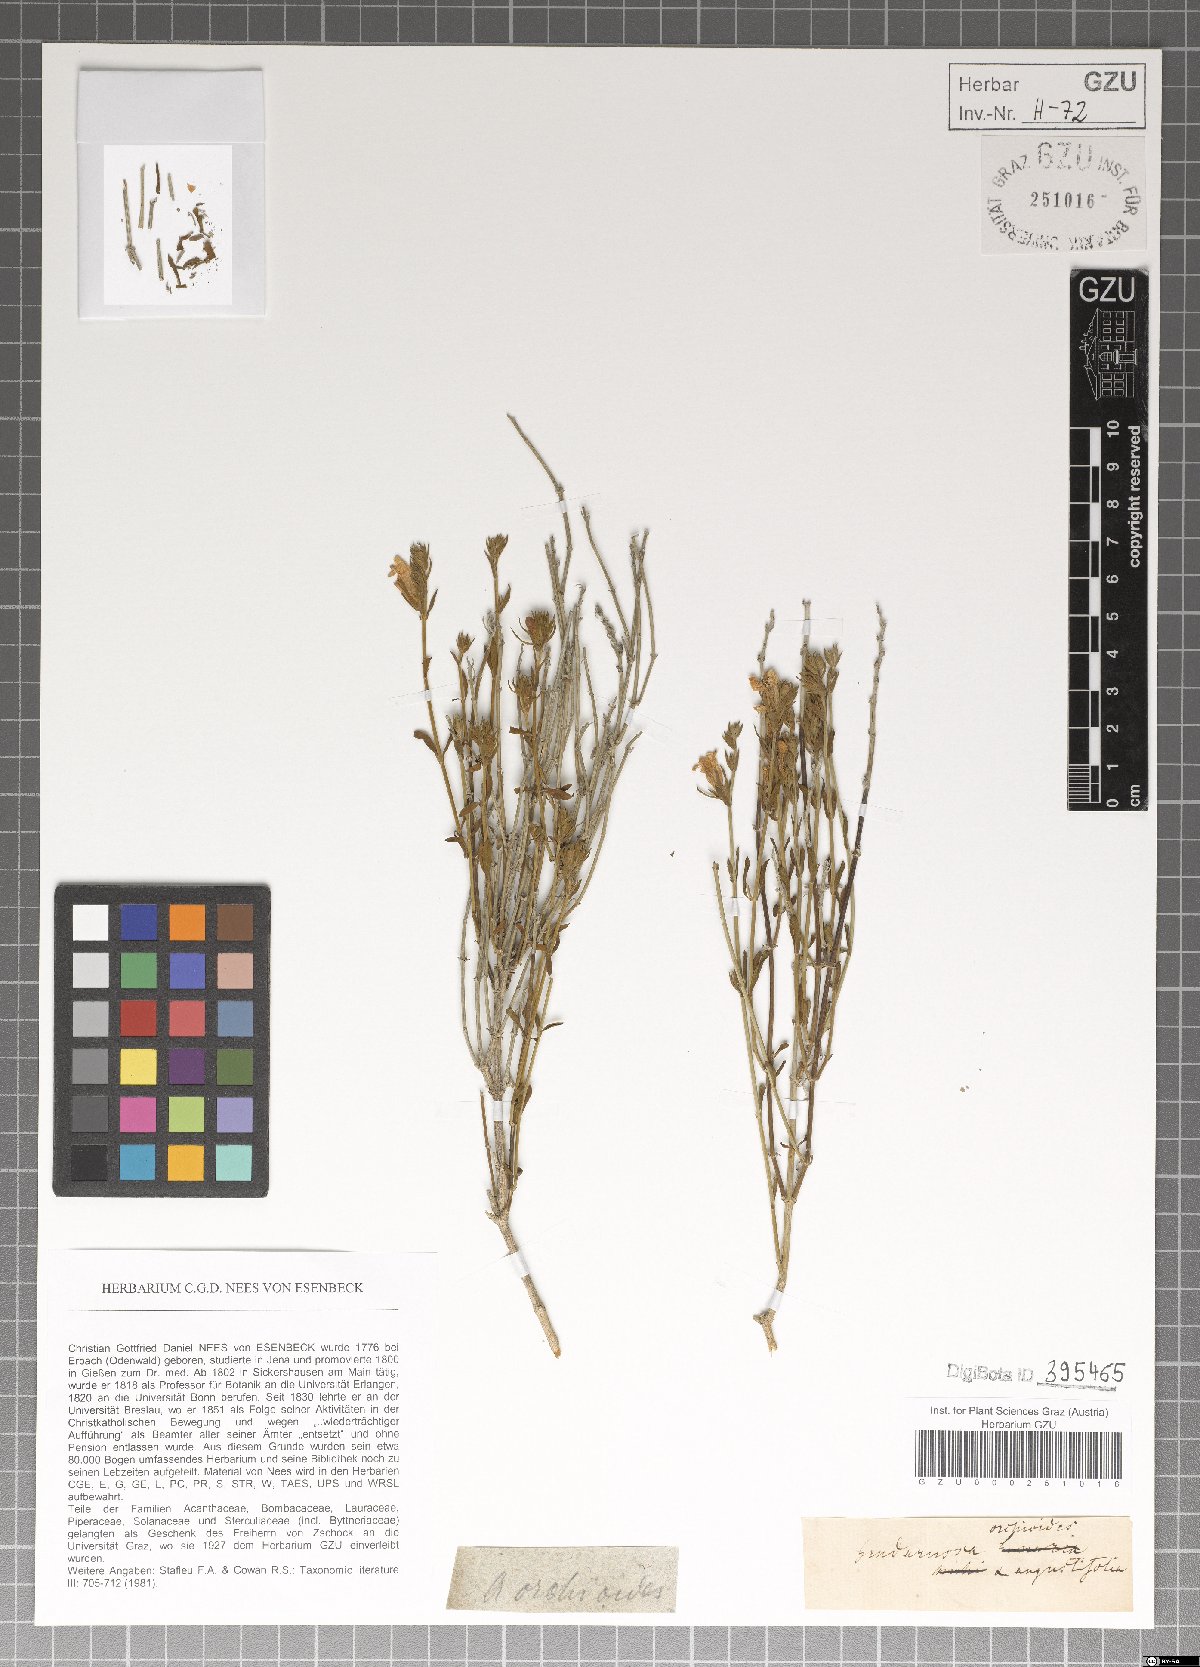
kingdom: Plantae
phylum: Tracheophyta
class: Magnoliopsida
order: Lamiales
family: Acanthaceae
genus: Justicia
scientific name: Justicia cuneata
